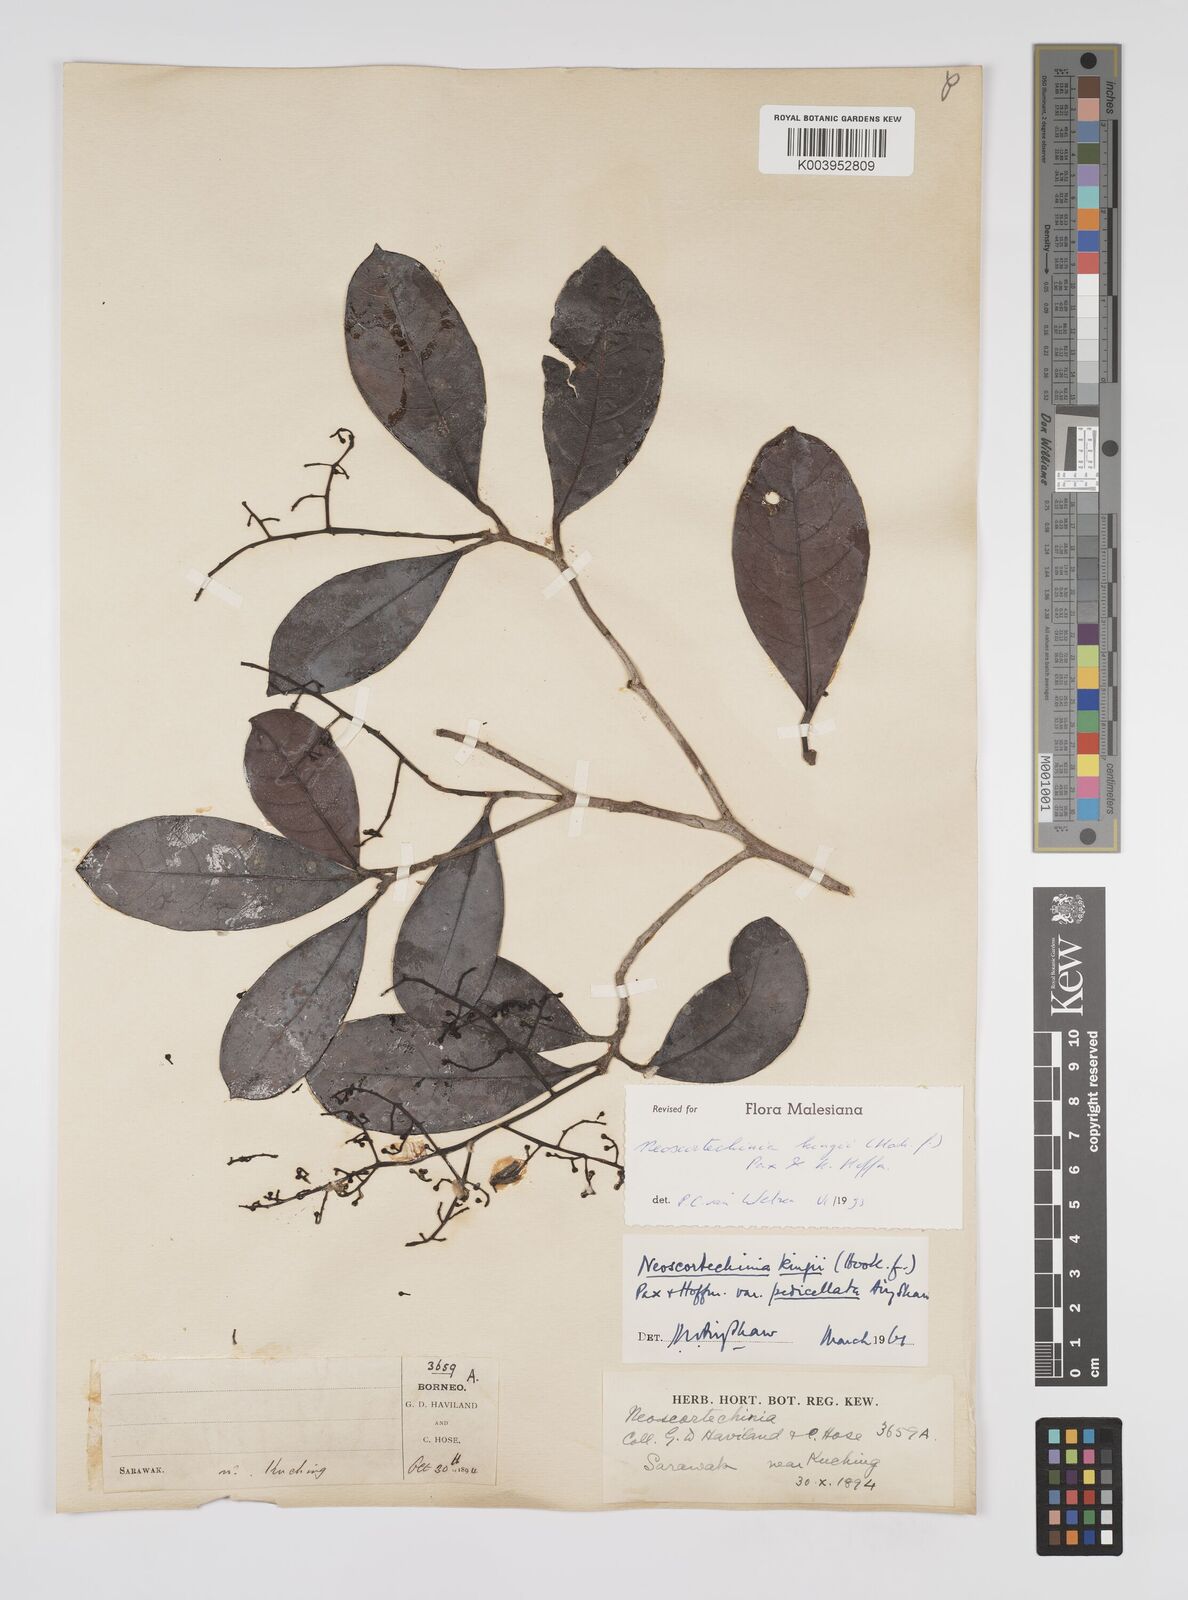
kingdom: Plantae
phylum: Tracheophyta
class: Magnoliopsida
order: Malpighiales
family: Euphorbiaceae
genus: Neoscortechinia
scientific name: Neoscortechinia kingii
